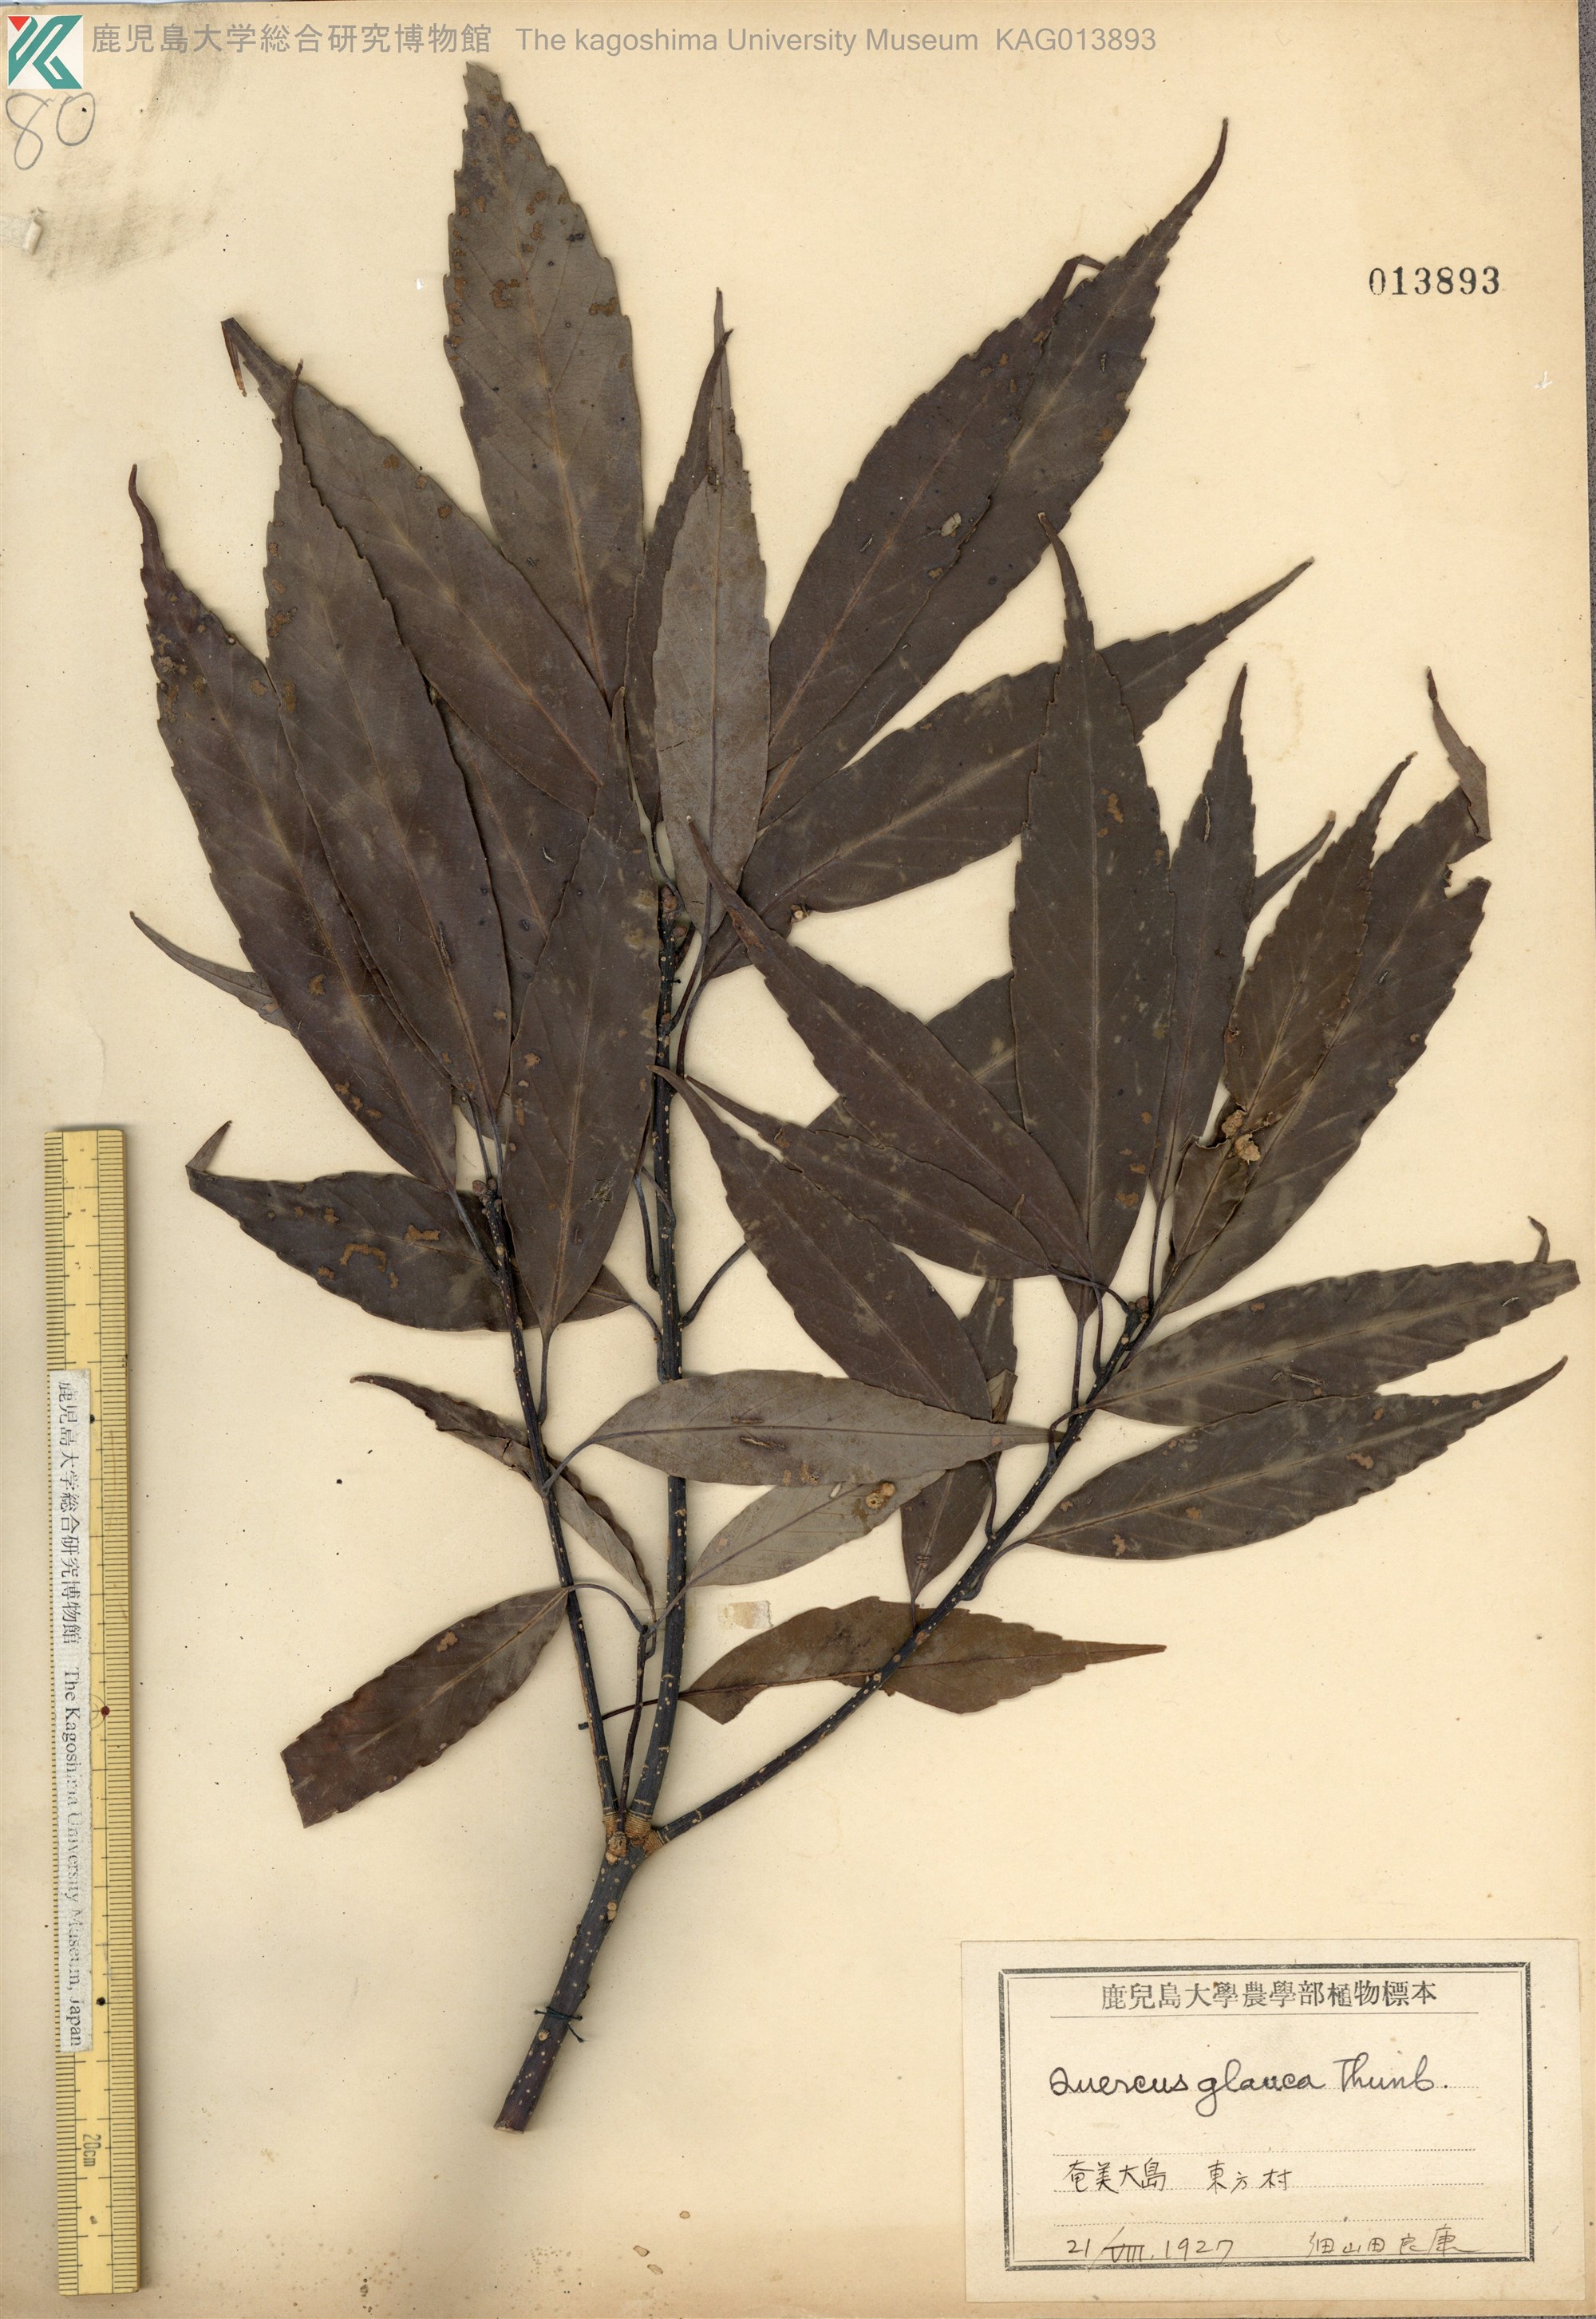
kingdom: Plantae
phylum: Tracheophyta
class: Magnoliopsida
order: Fagales
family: Fagaceae
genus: Quercus
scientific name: Quercus glauca
